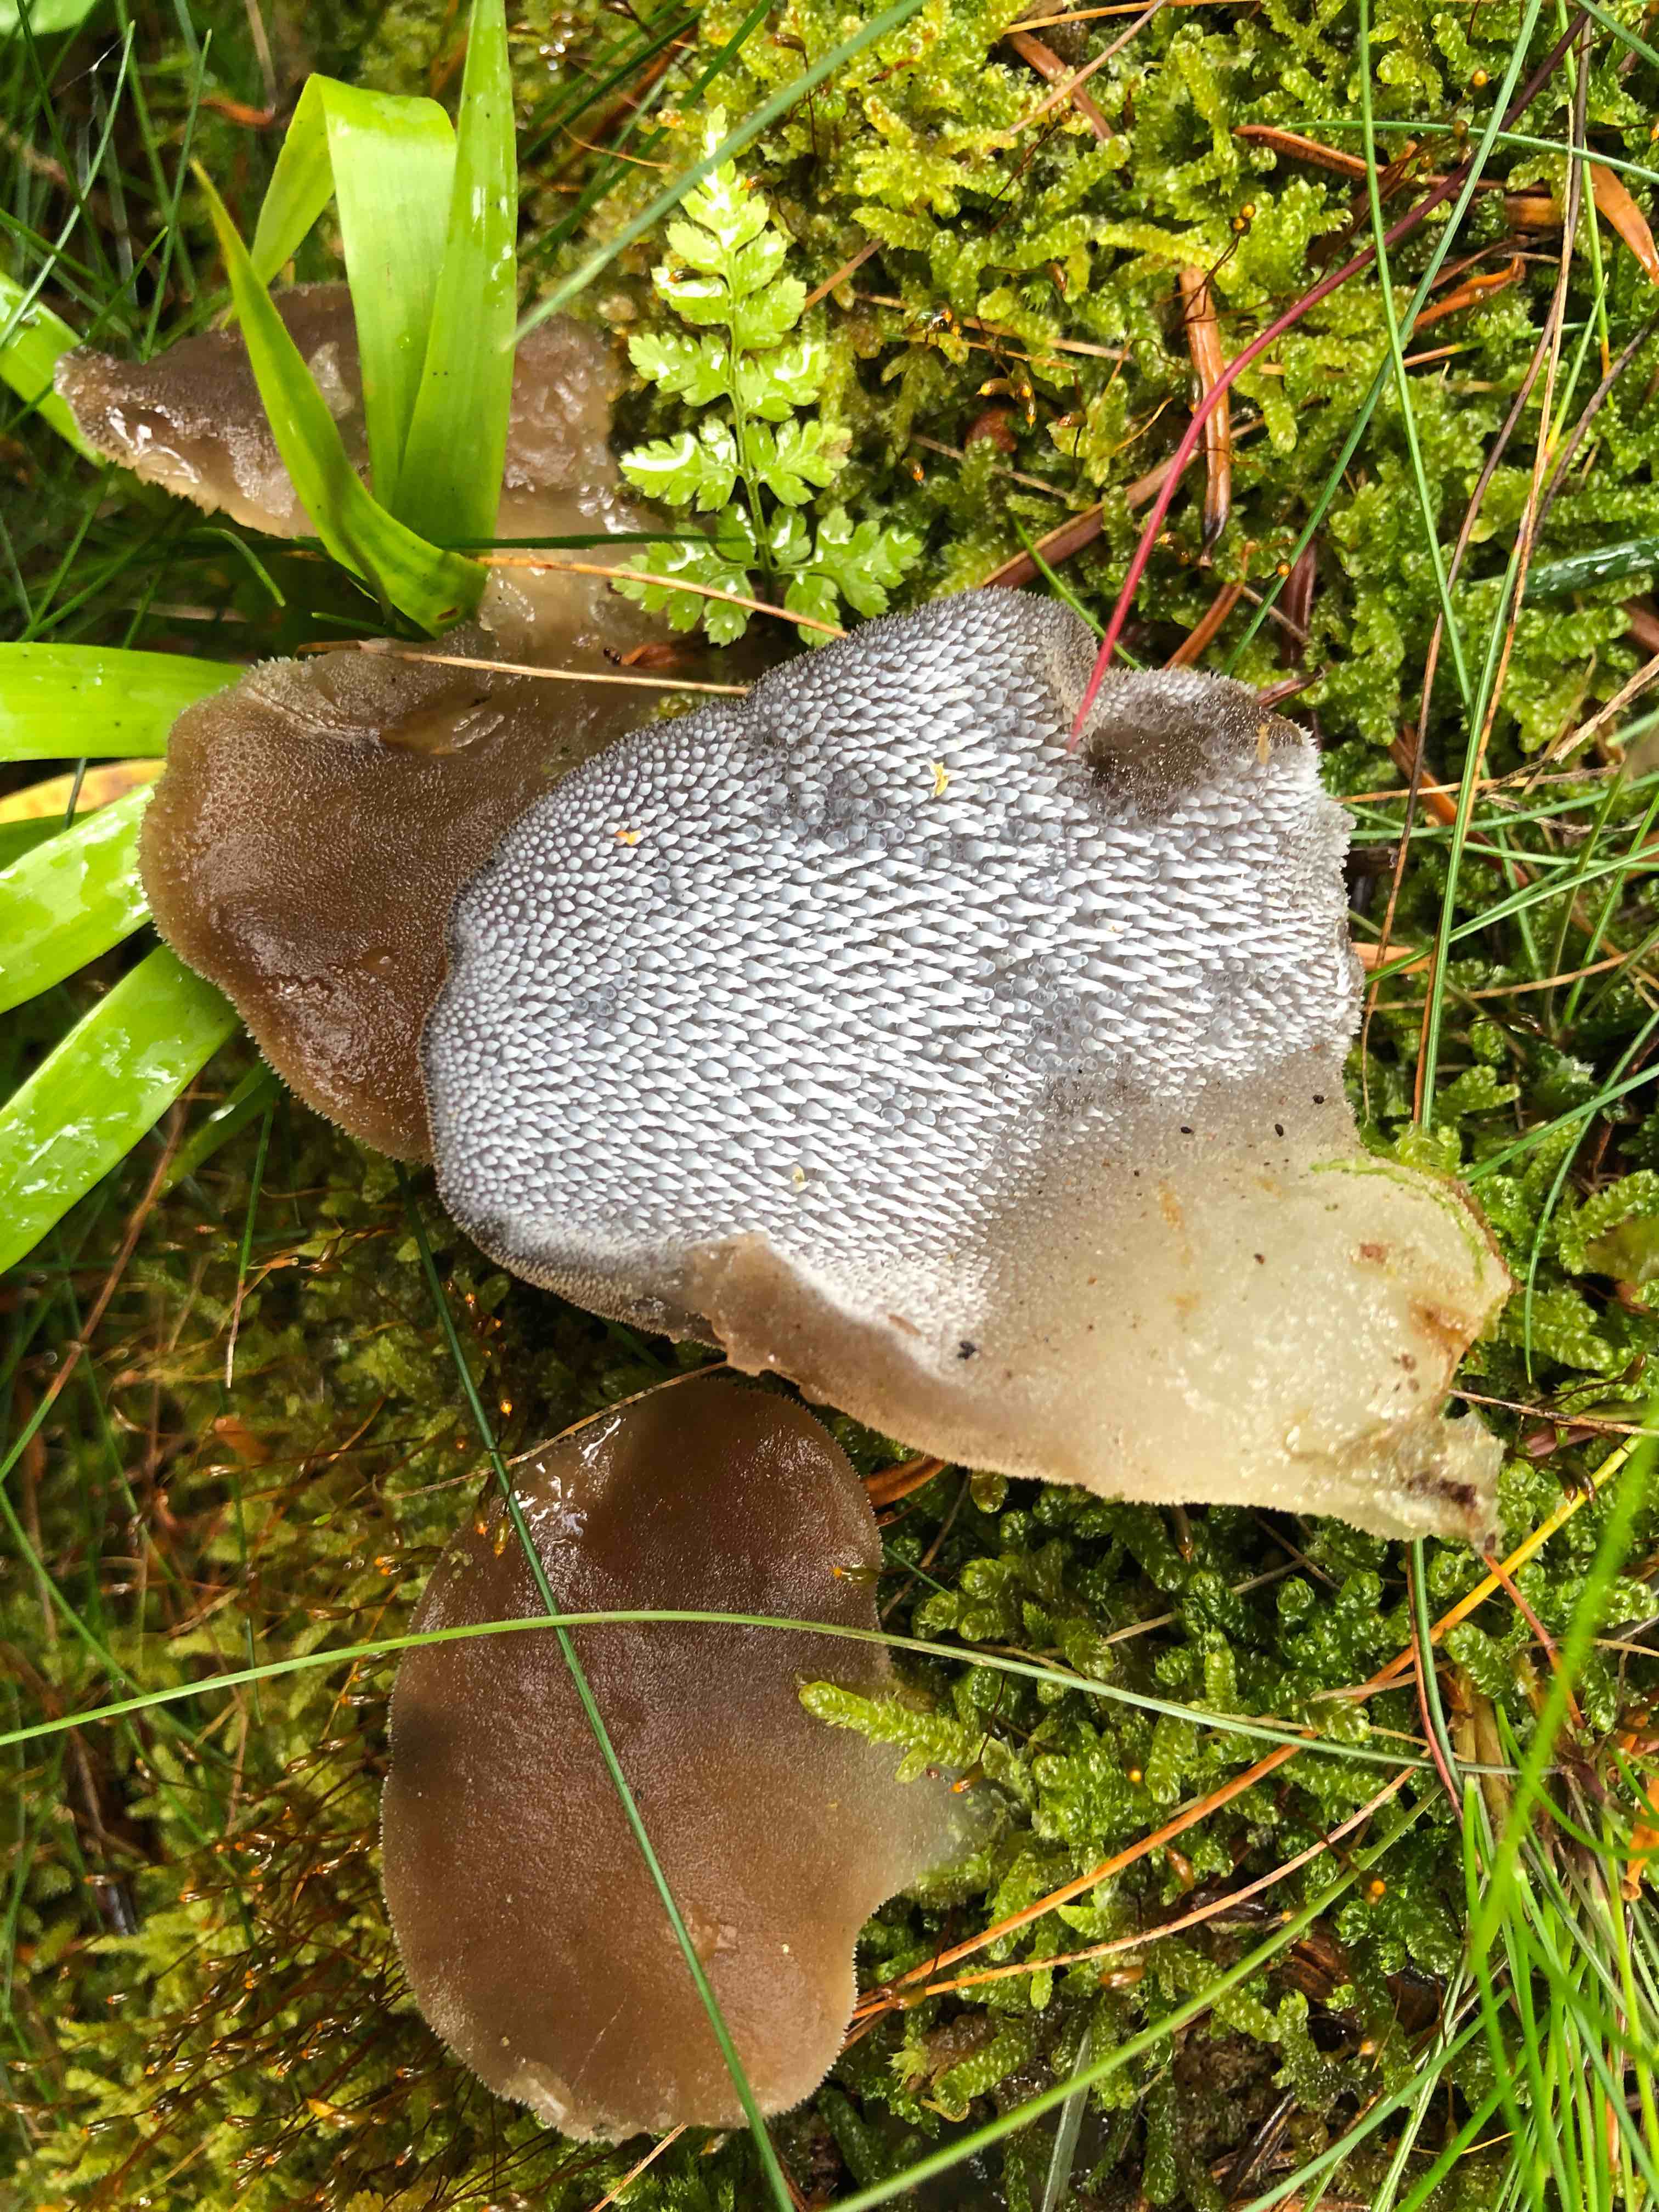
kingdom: Fungi
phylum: Basidiomycota
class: Agaricomycetes
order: Auriculariales
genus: Pseudohydnum
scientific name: Pseudohydnum gelatinosum
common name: bævretand
